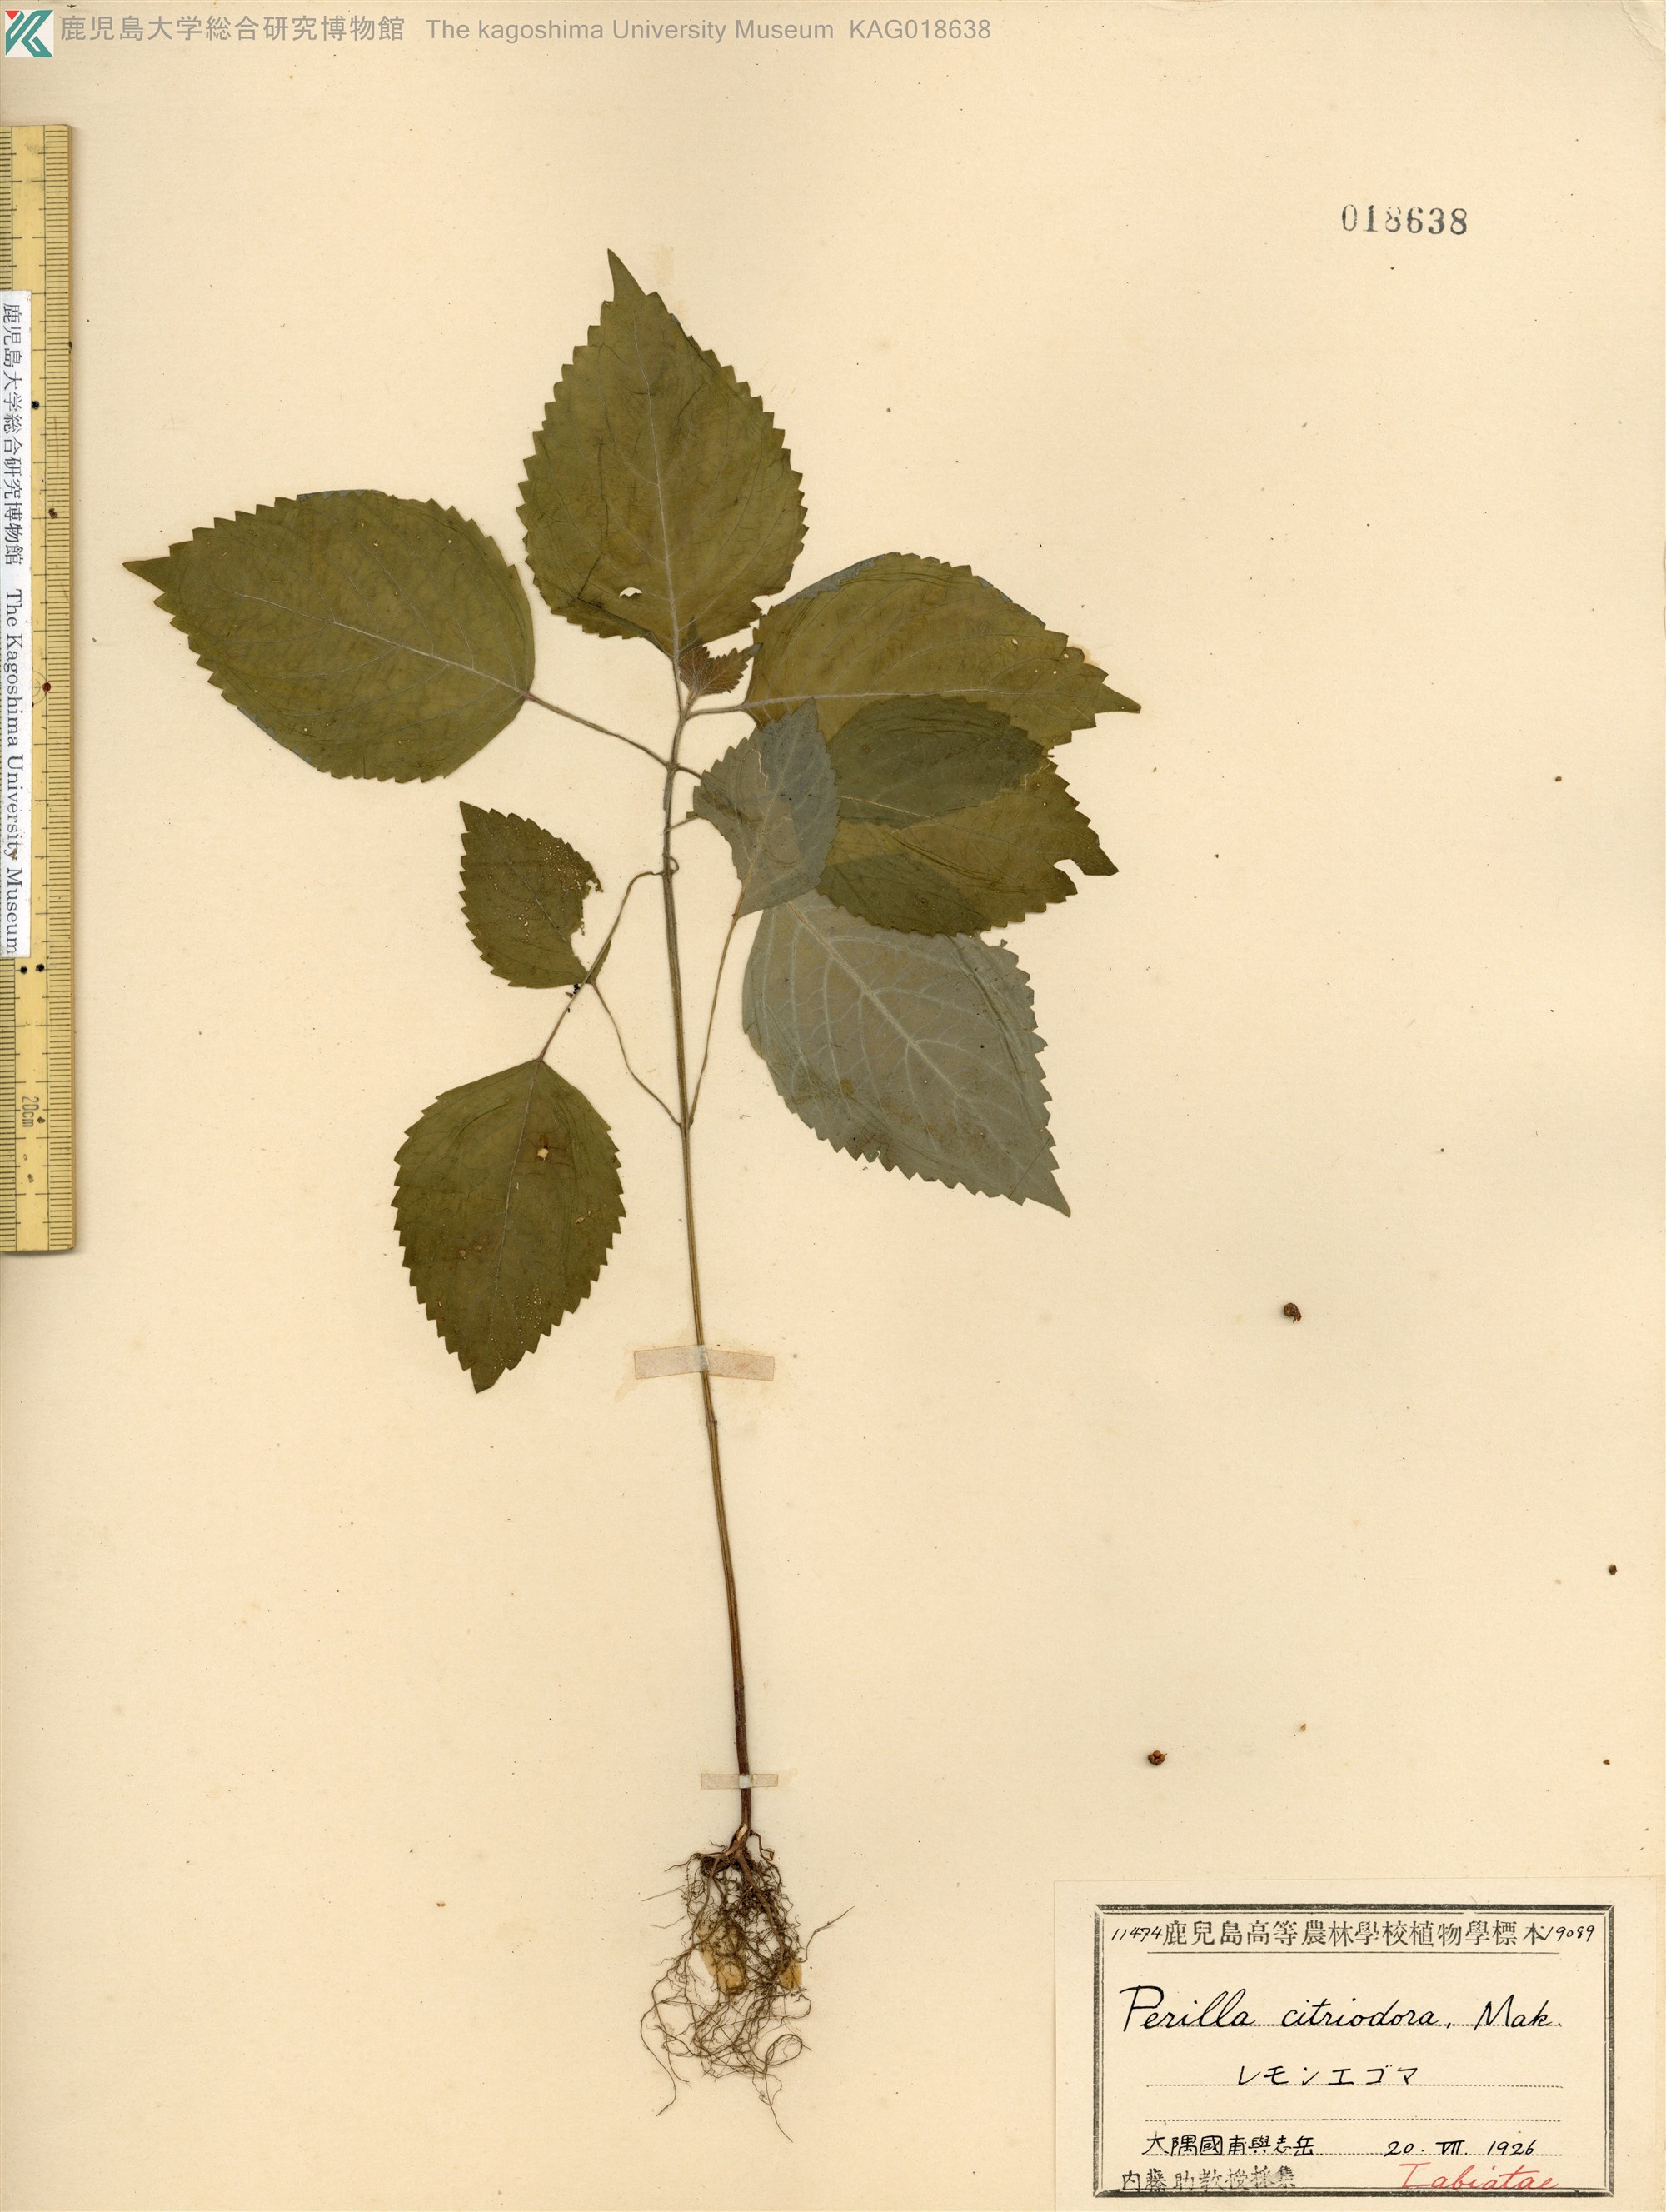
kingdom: Plantae
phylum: Tracheophyta
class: Magnoliopsida
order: Lamiales
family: Lamiaceae
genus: Perilla
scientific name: Perilla frutescens
